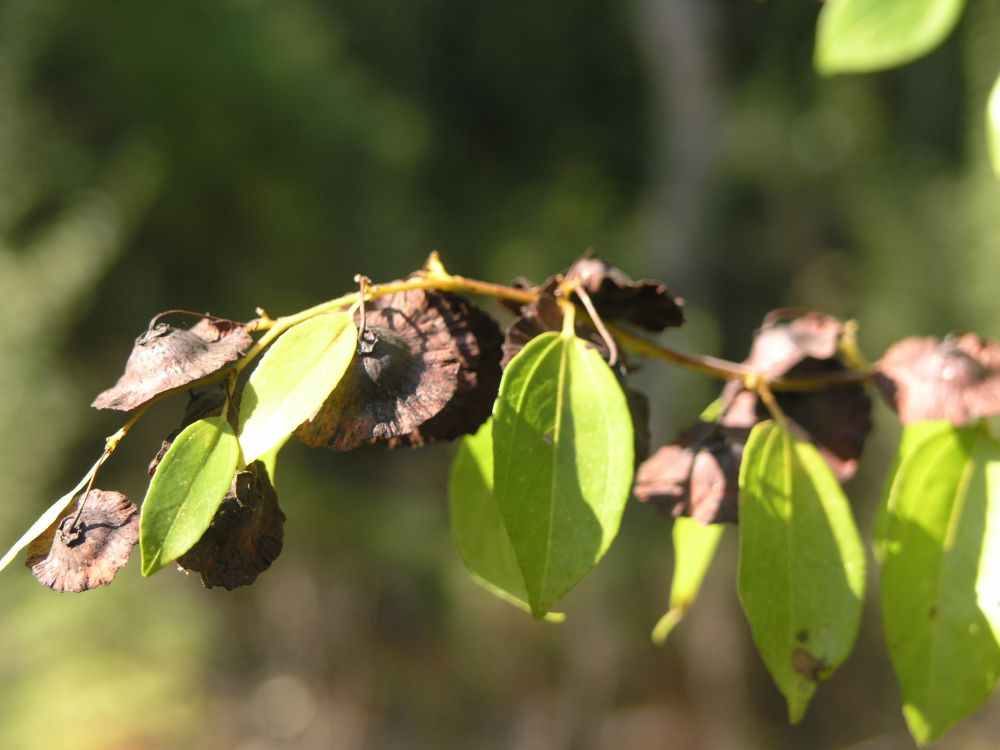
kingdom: Plantae
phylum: Tracheophyta
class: Magnoliopsida
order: Rosales
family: Rhamnaceae
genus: Paliurus
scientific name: Paliurus spina-christi
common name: Jeruselem thorn
